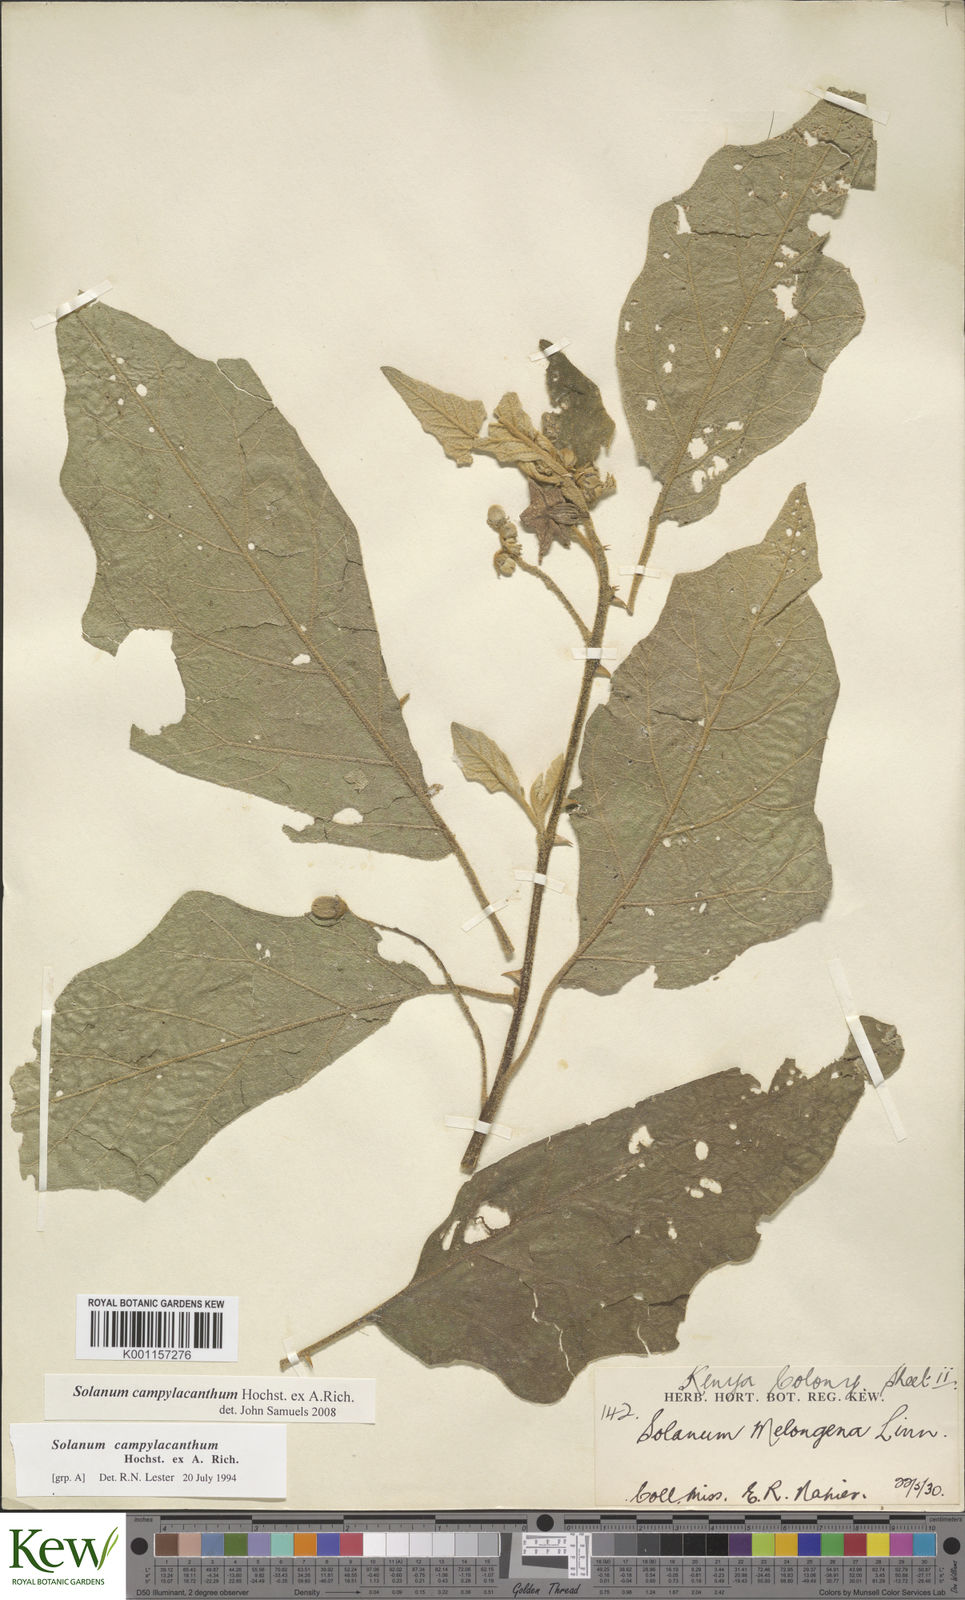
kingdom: Plantae
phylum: Tracheophyta
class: Magnoliopsida
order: Solanales
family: Solanaceae
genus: Solanum
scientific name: Solanum campylacanthum
